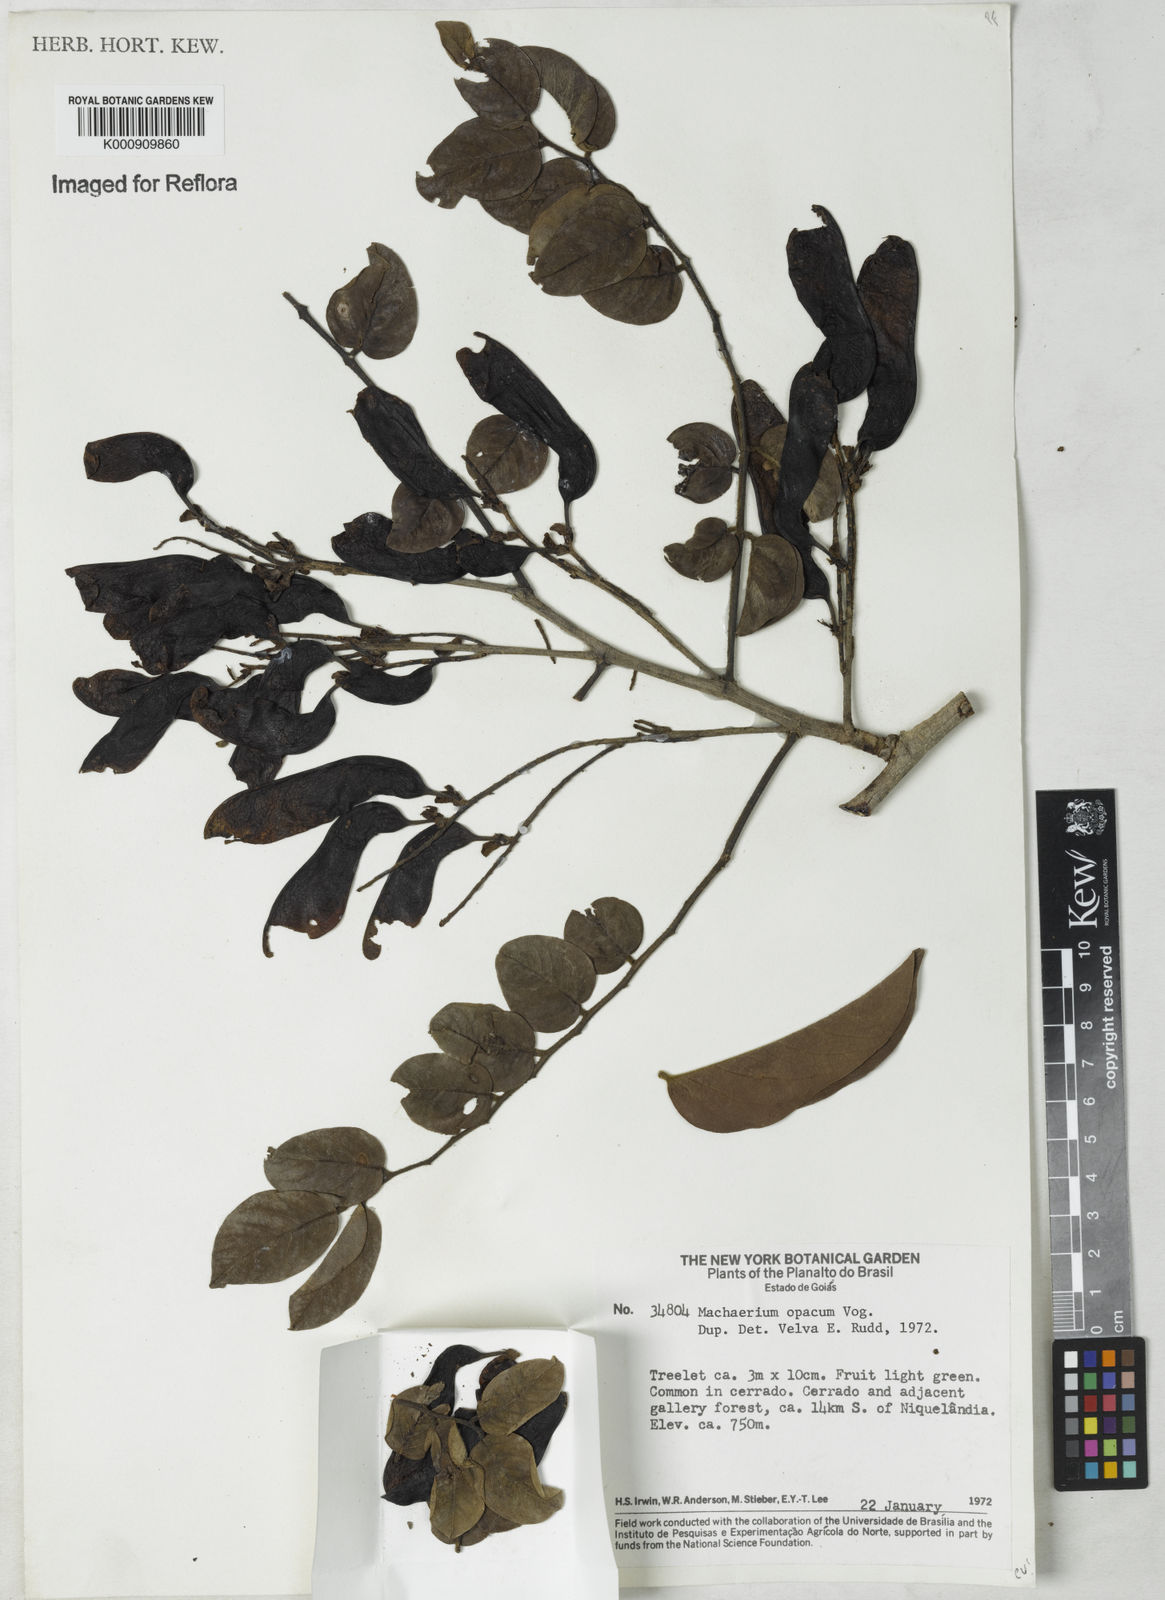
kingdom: Plantae
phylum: Tracheophyta
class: Magnoliopsida
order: Fabales
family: Fabaceae
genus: Machaerium
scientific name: Machaerium opacum
